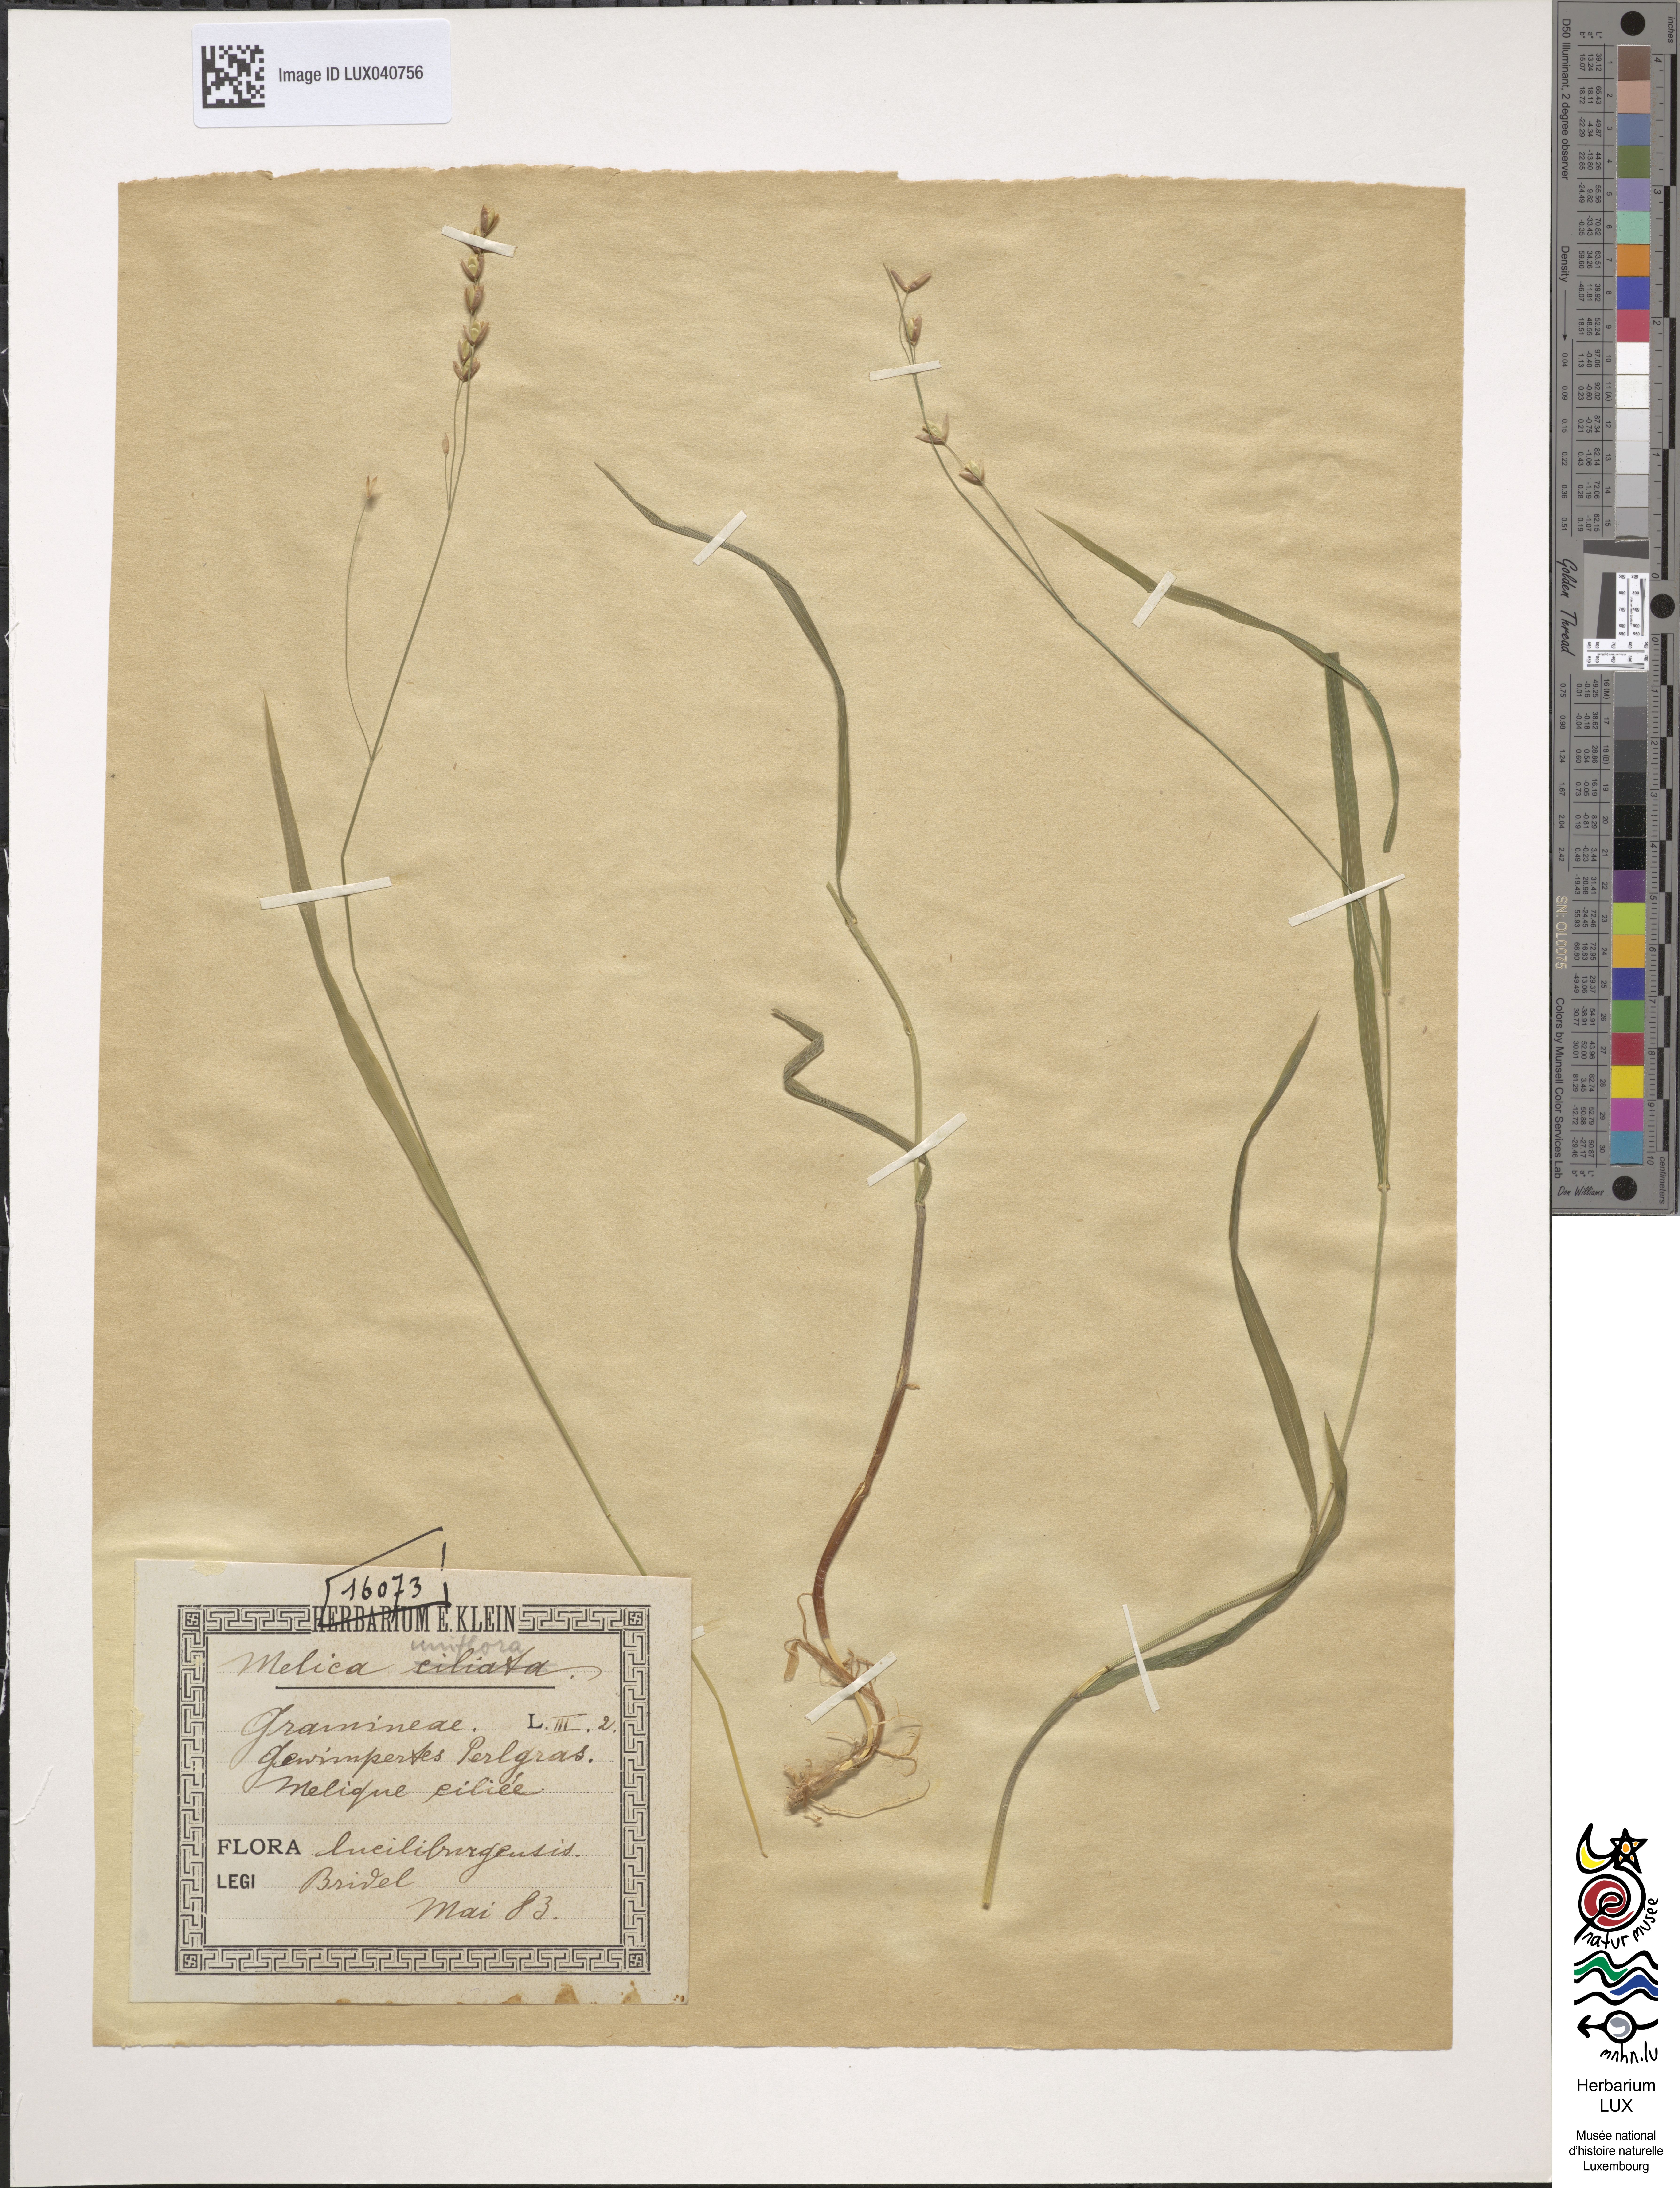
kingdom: Plantae
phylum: Tracheophyta
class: Liliopsida
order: Poales
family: Poaceae
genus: Melica
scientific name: Melica uniflora
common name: Wood melick
